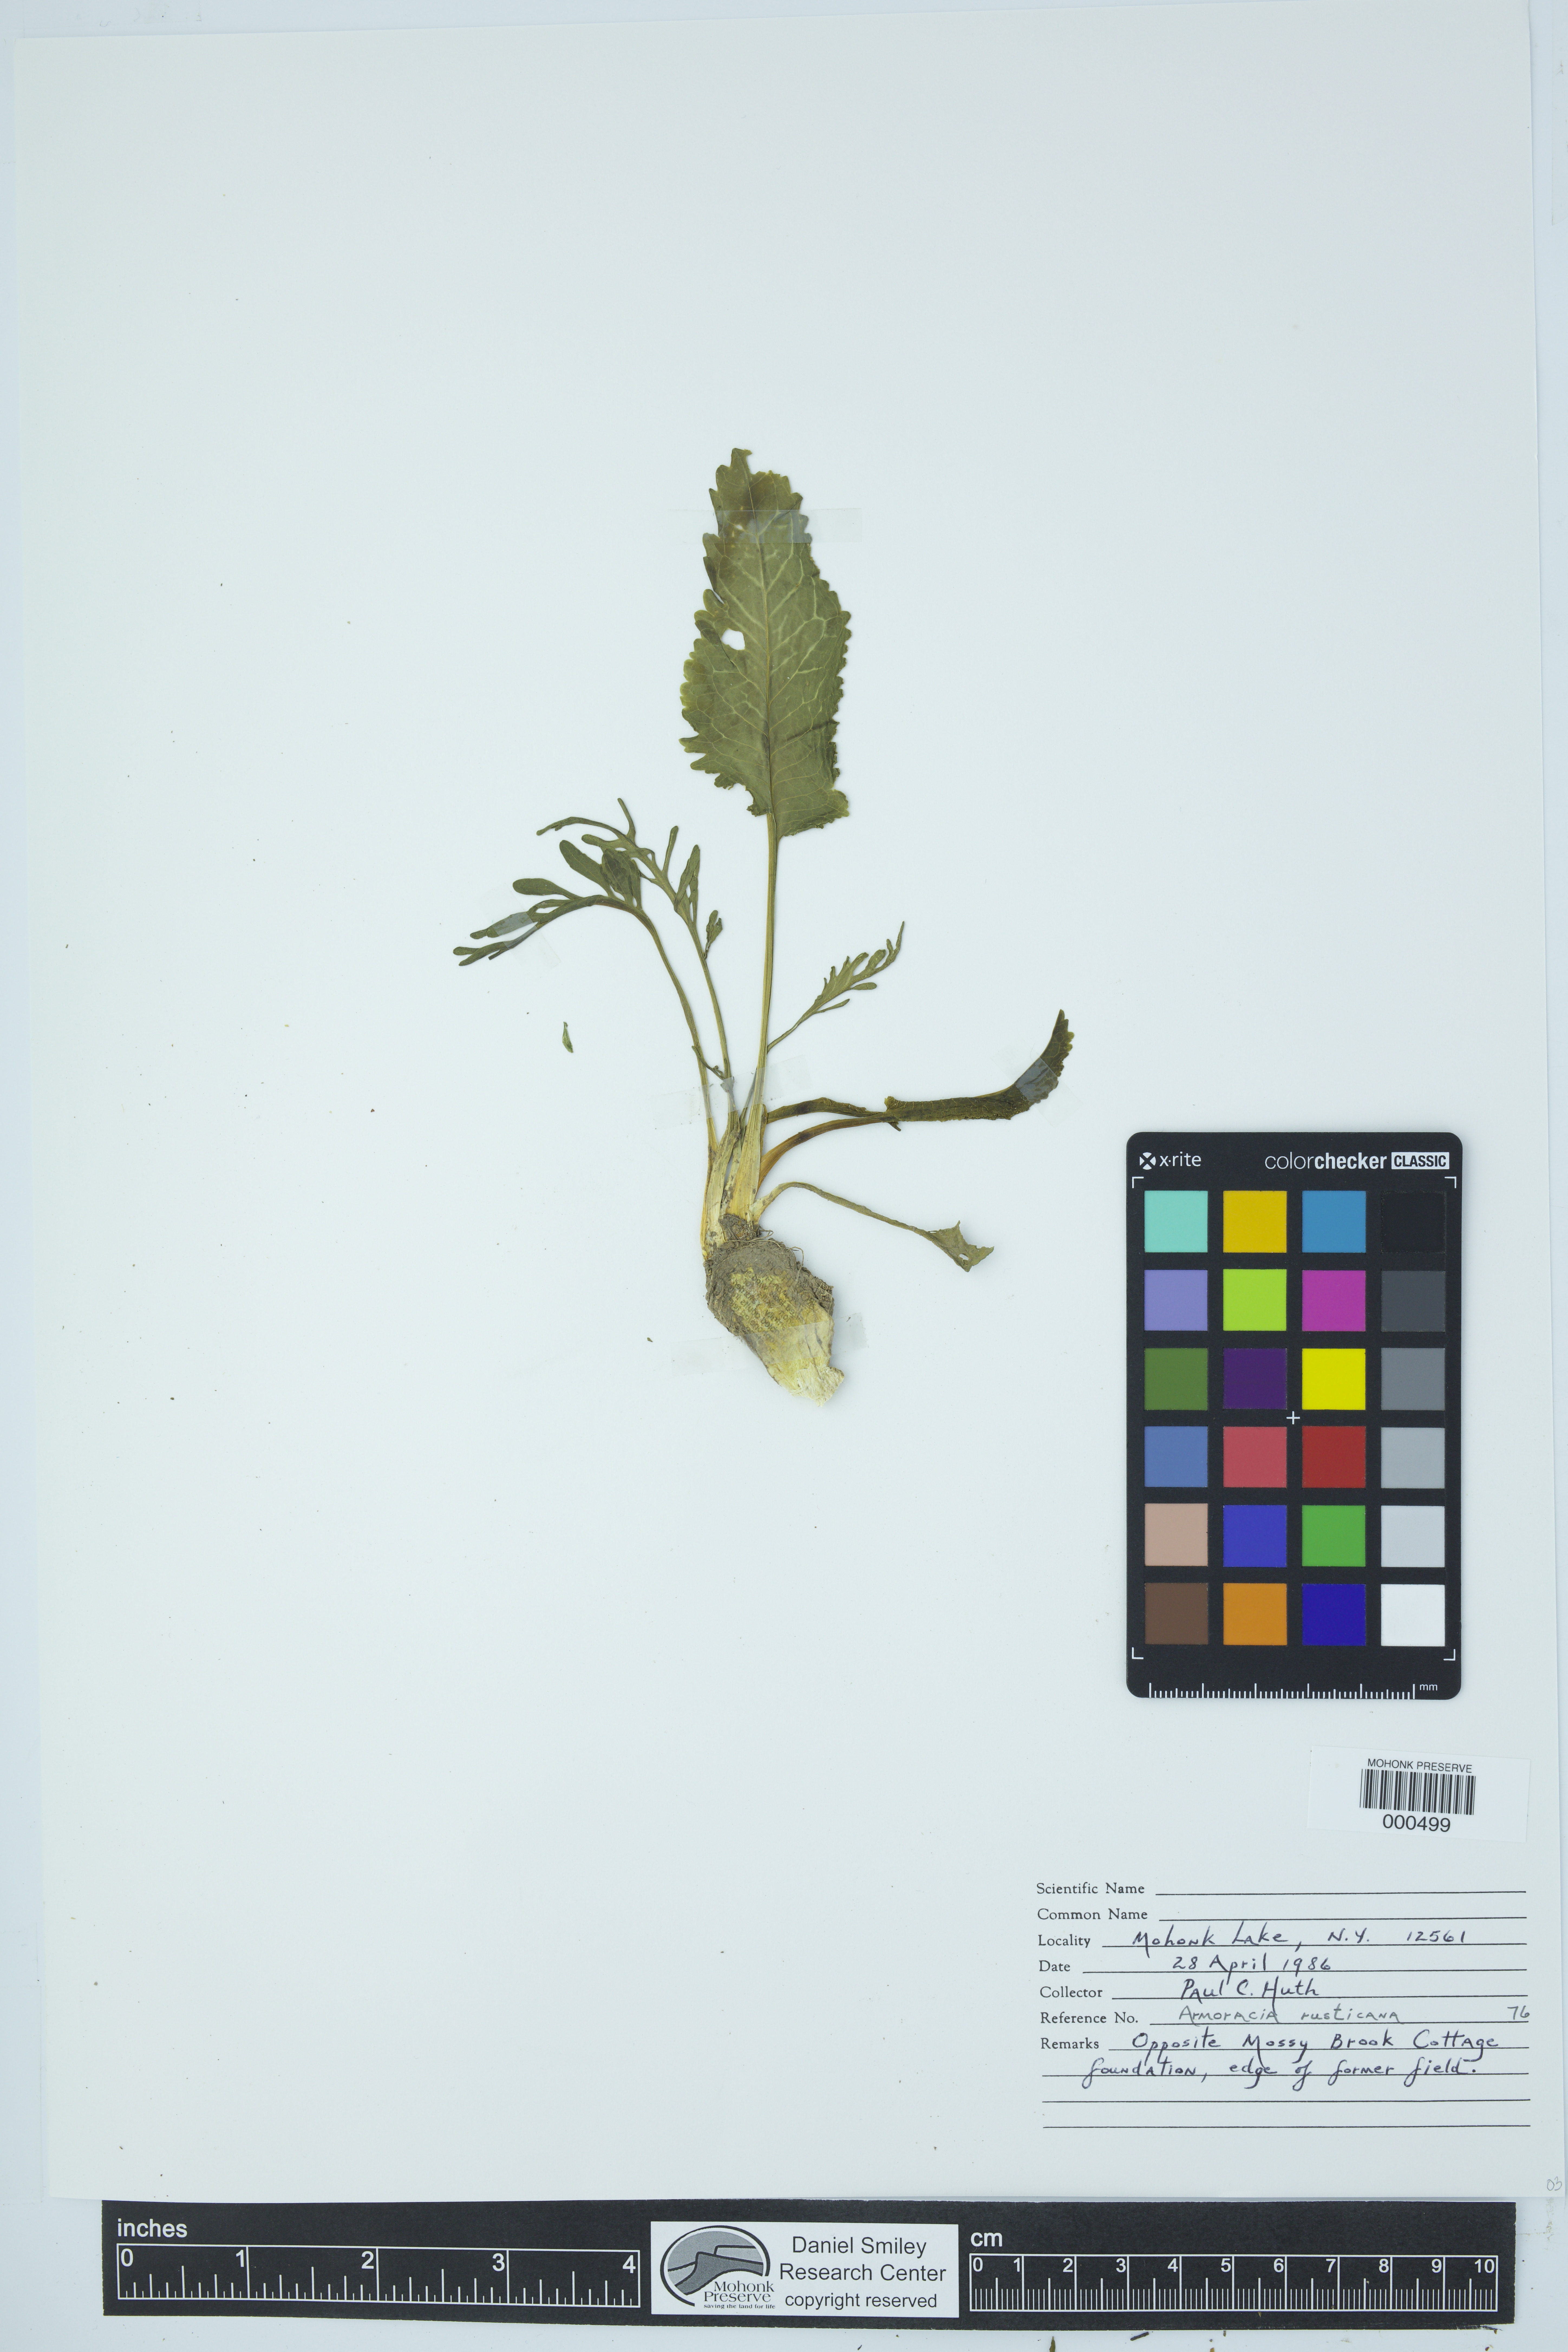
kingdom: Plantae
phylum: Tracheophyta
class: Magnoliopsida
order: Brassicales
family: Brassicaceae
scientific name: Brassicaceae
